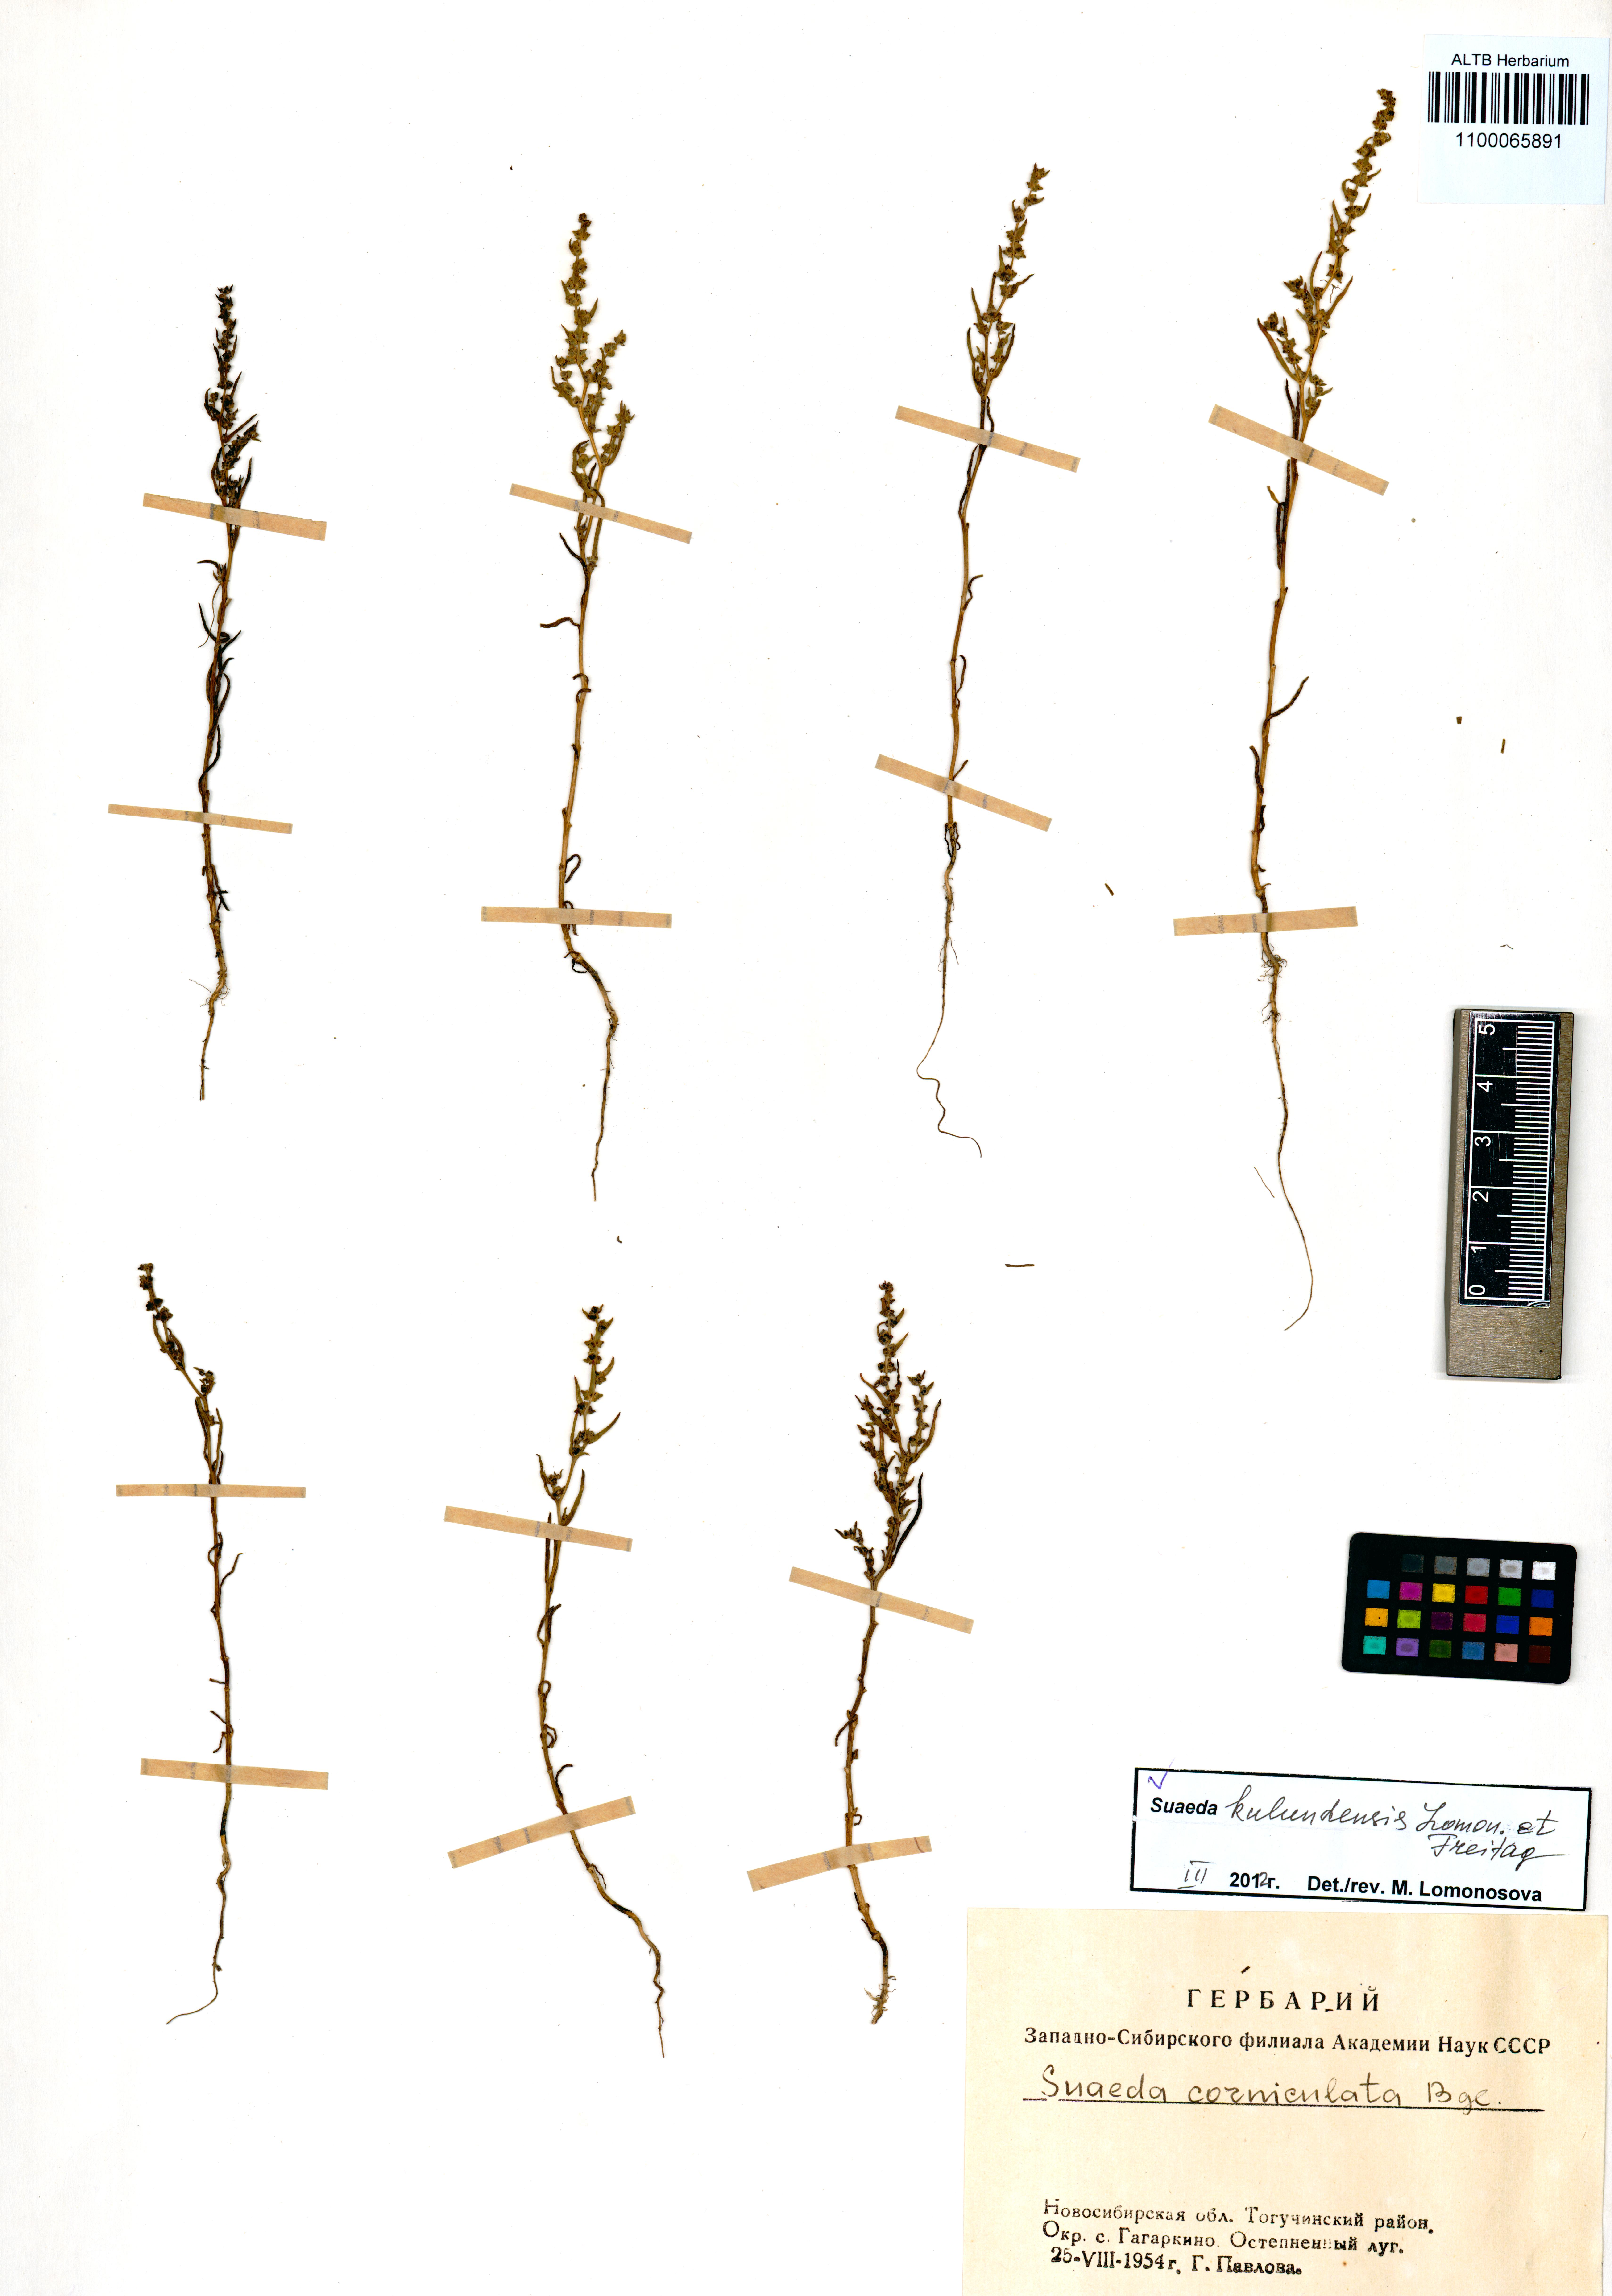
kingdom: Plantae
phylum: Tracheophyta
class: Magnoliopsida
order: Caryophyllales
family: Amaranthaceae
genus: Suaeda
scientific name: Suaeda kulundensis
